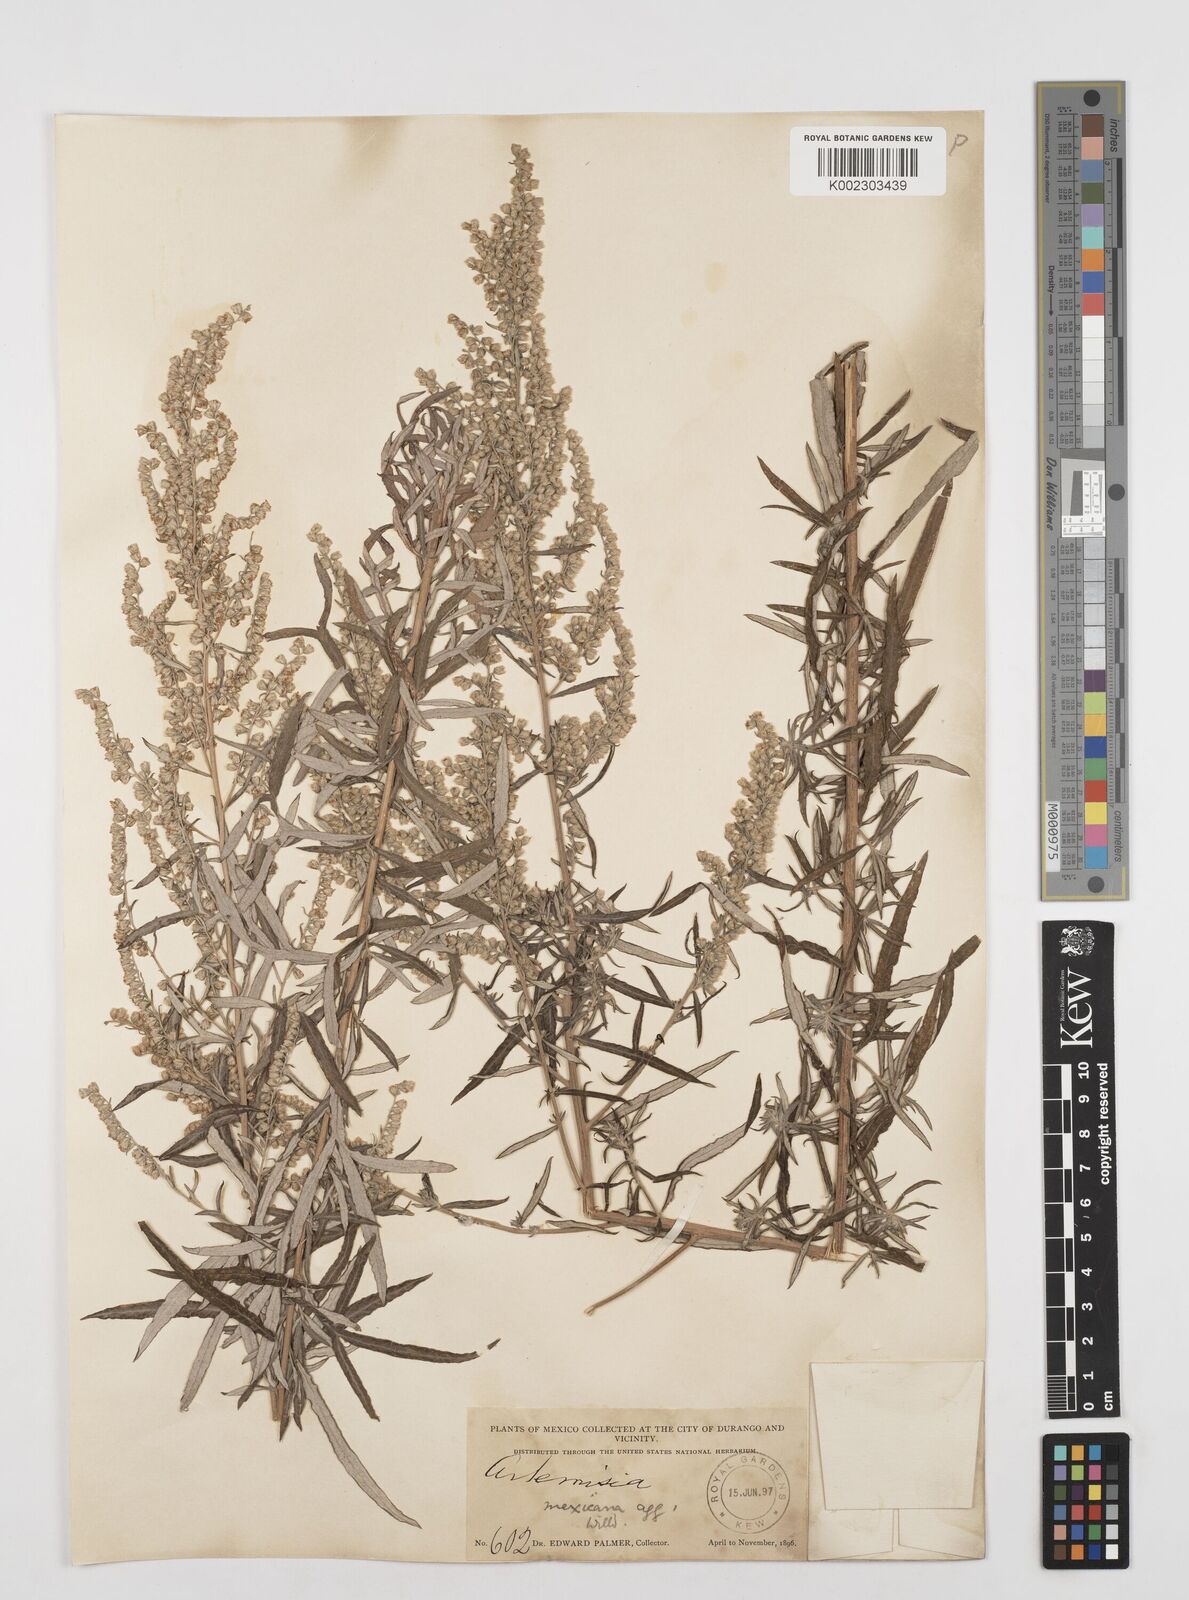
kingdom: Plantae
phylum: Tracheophyta
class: Magnoliopsida
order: Asterales
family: Asteraceae
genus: Artemisia
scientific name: Artemisia ludoviciana
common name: Western mugwort
